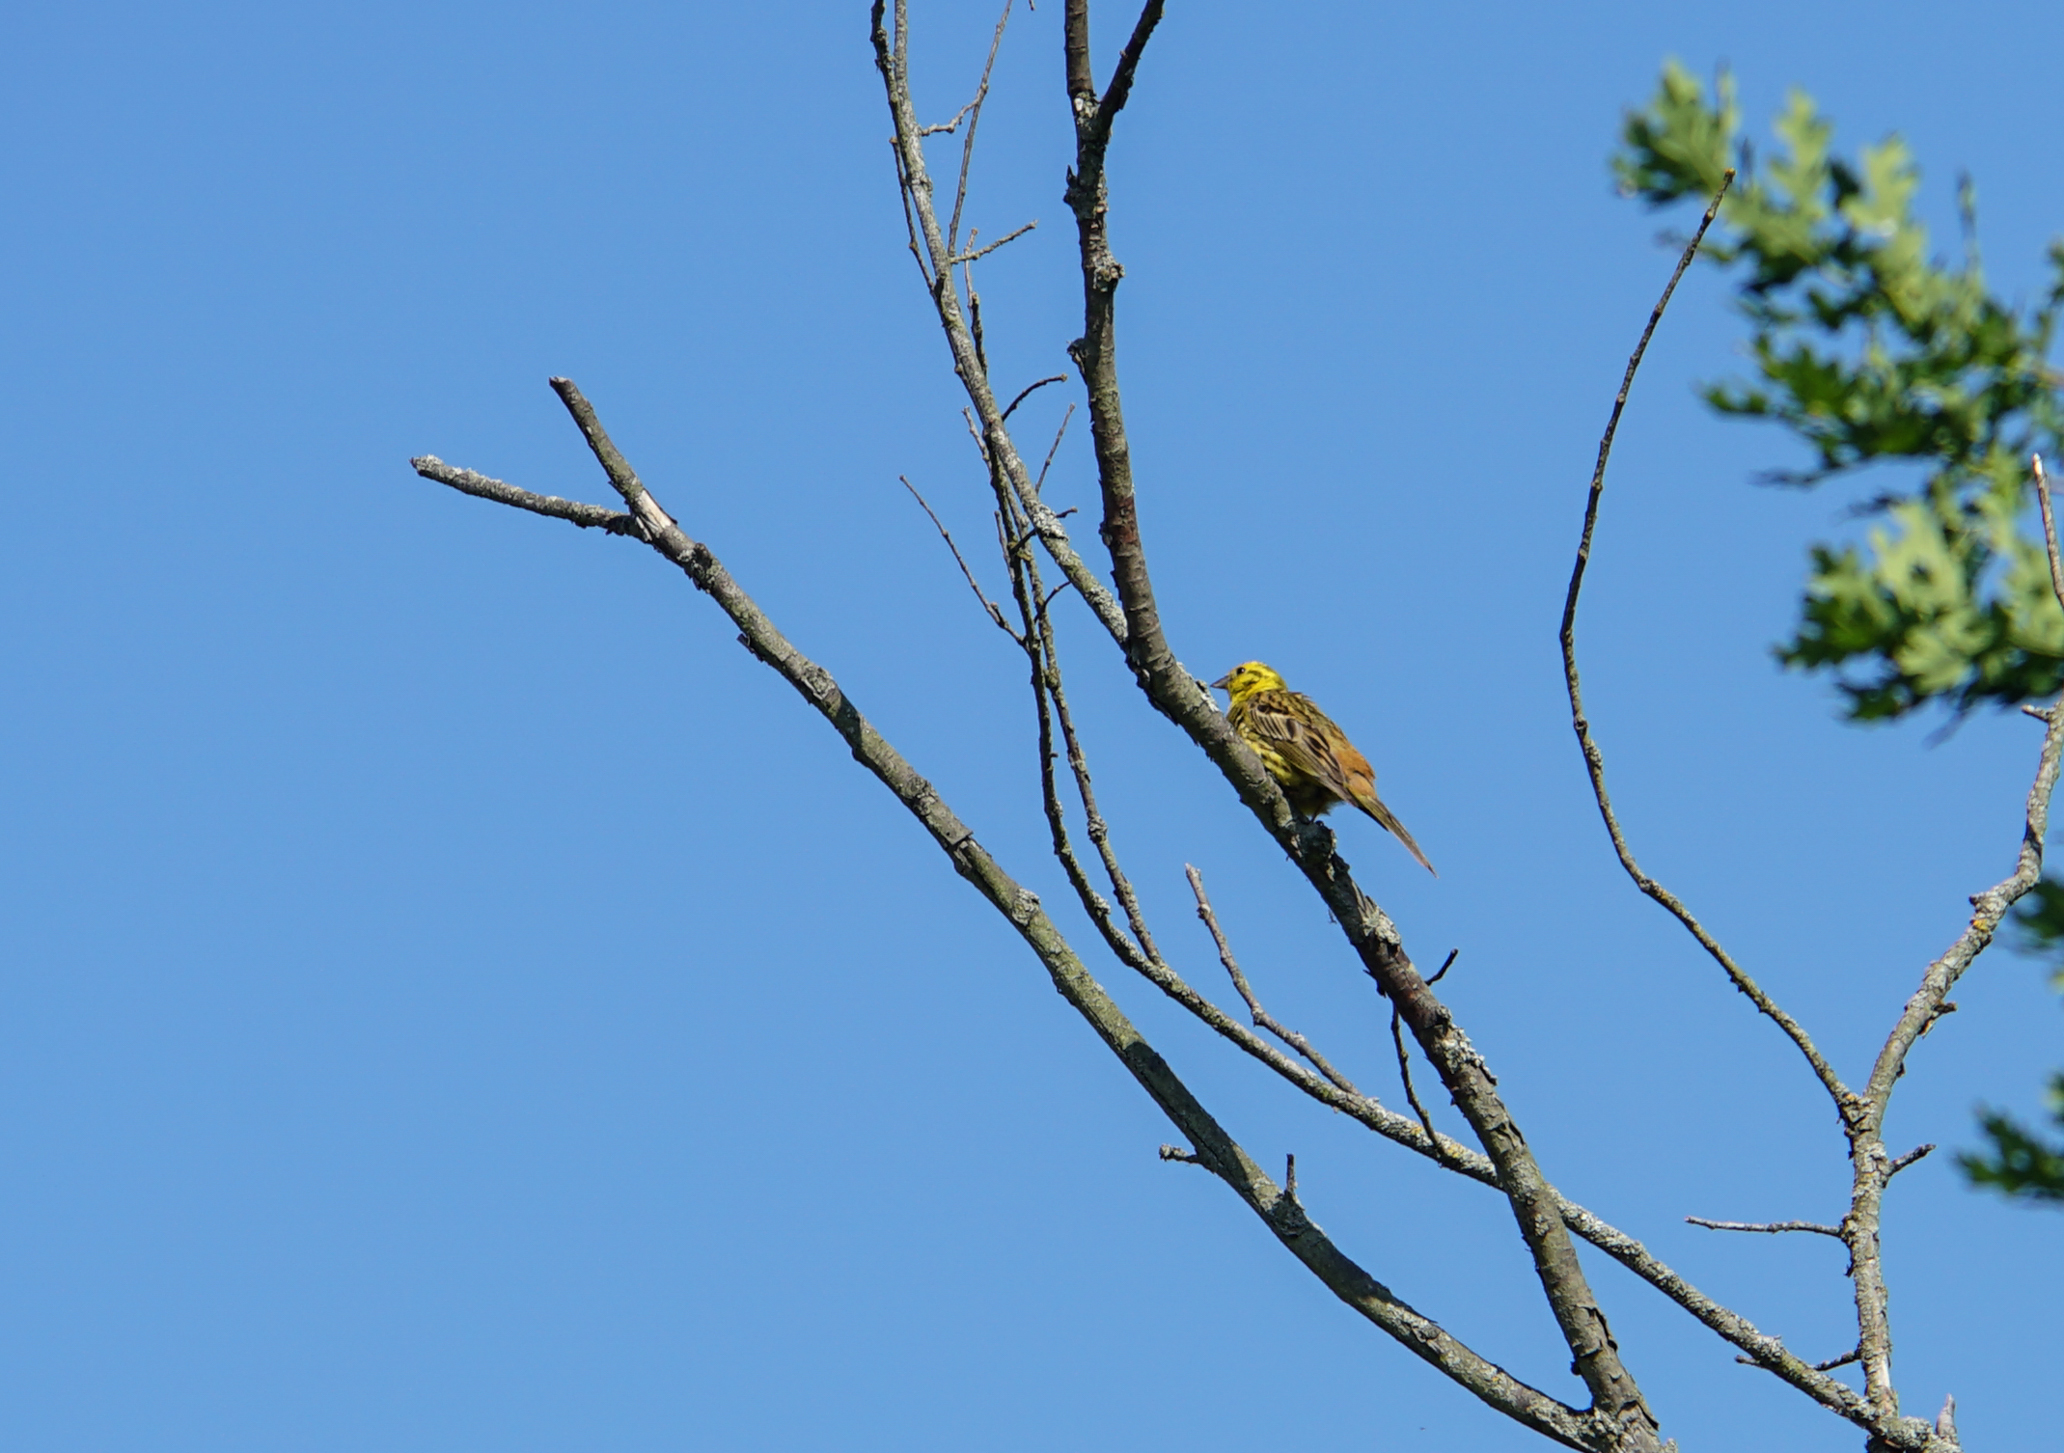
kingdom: Animalia
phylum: Chordata
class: Aves
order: Passeriformes
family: Emberizidae
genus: Emberiza
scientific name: Emberiza citrinella
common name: Yellowhammer
